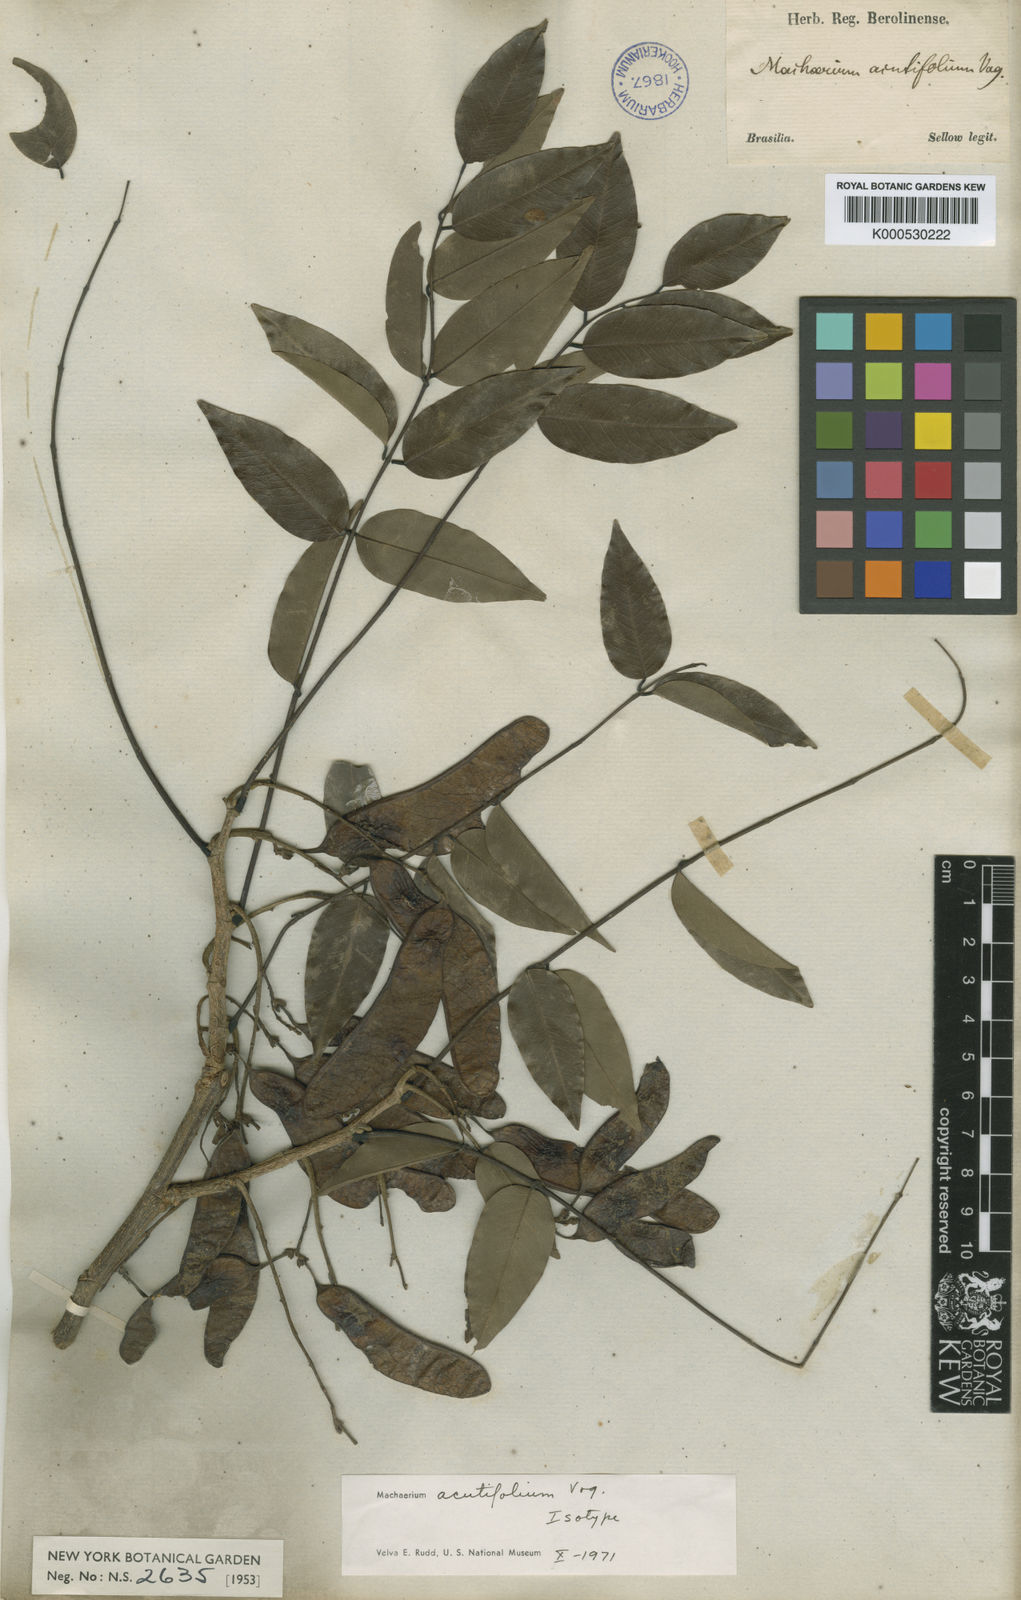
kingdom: Plantae
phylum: Tracheophyta
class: Magnoliopsida
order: Fabales
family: Fabaceae
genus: Machaerium
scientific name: Machaerium acutifolium
